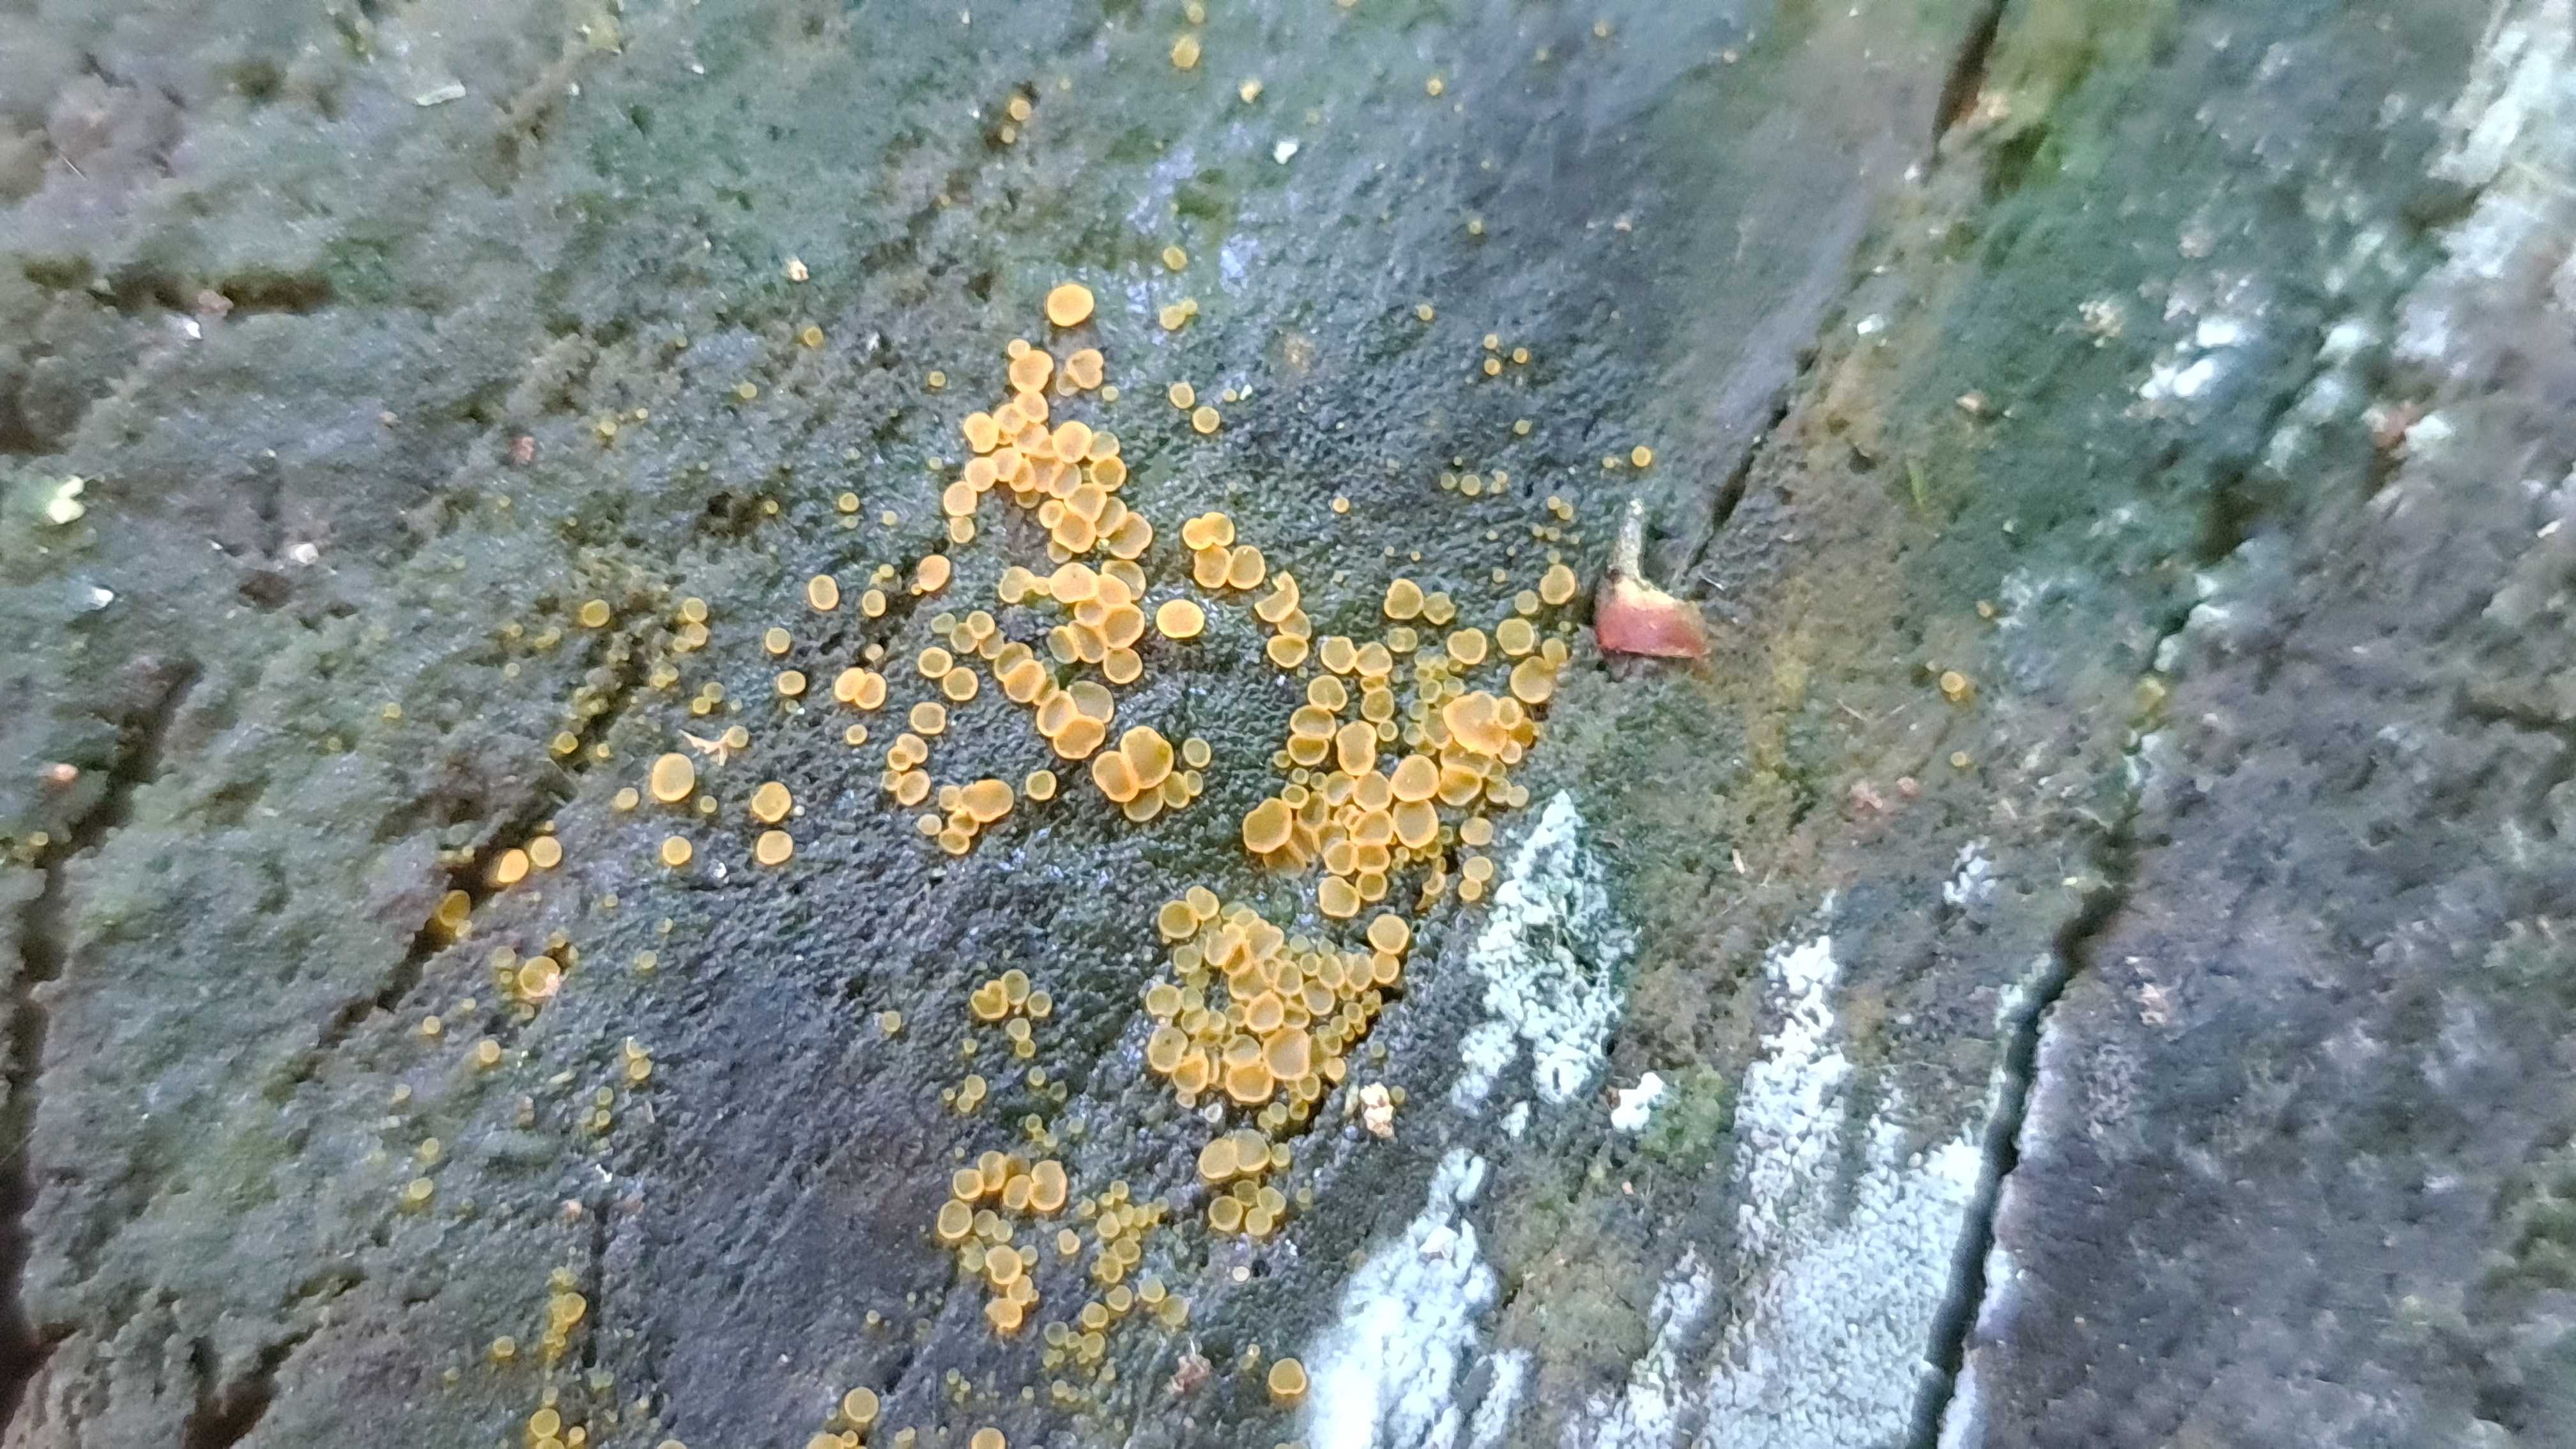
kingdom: Fungi
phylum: Ascomycota
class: Orbiliomycetes
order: Orbiliales
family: Orbiliaceae
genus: Orbilia
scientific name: Orbilia xanthostigma
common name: krumsporet voksskive
